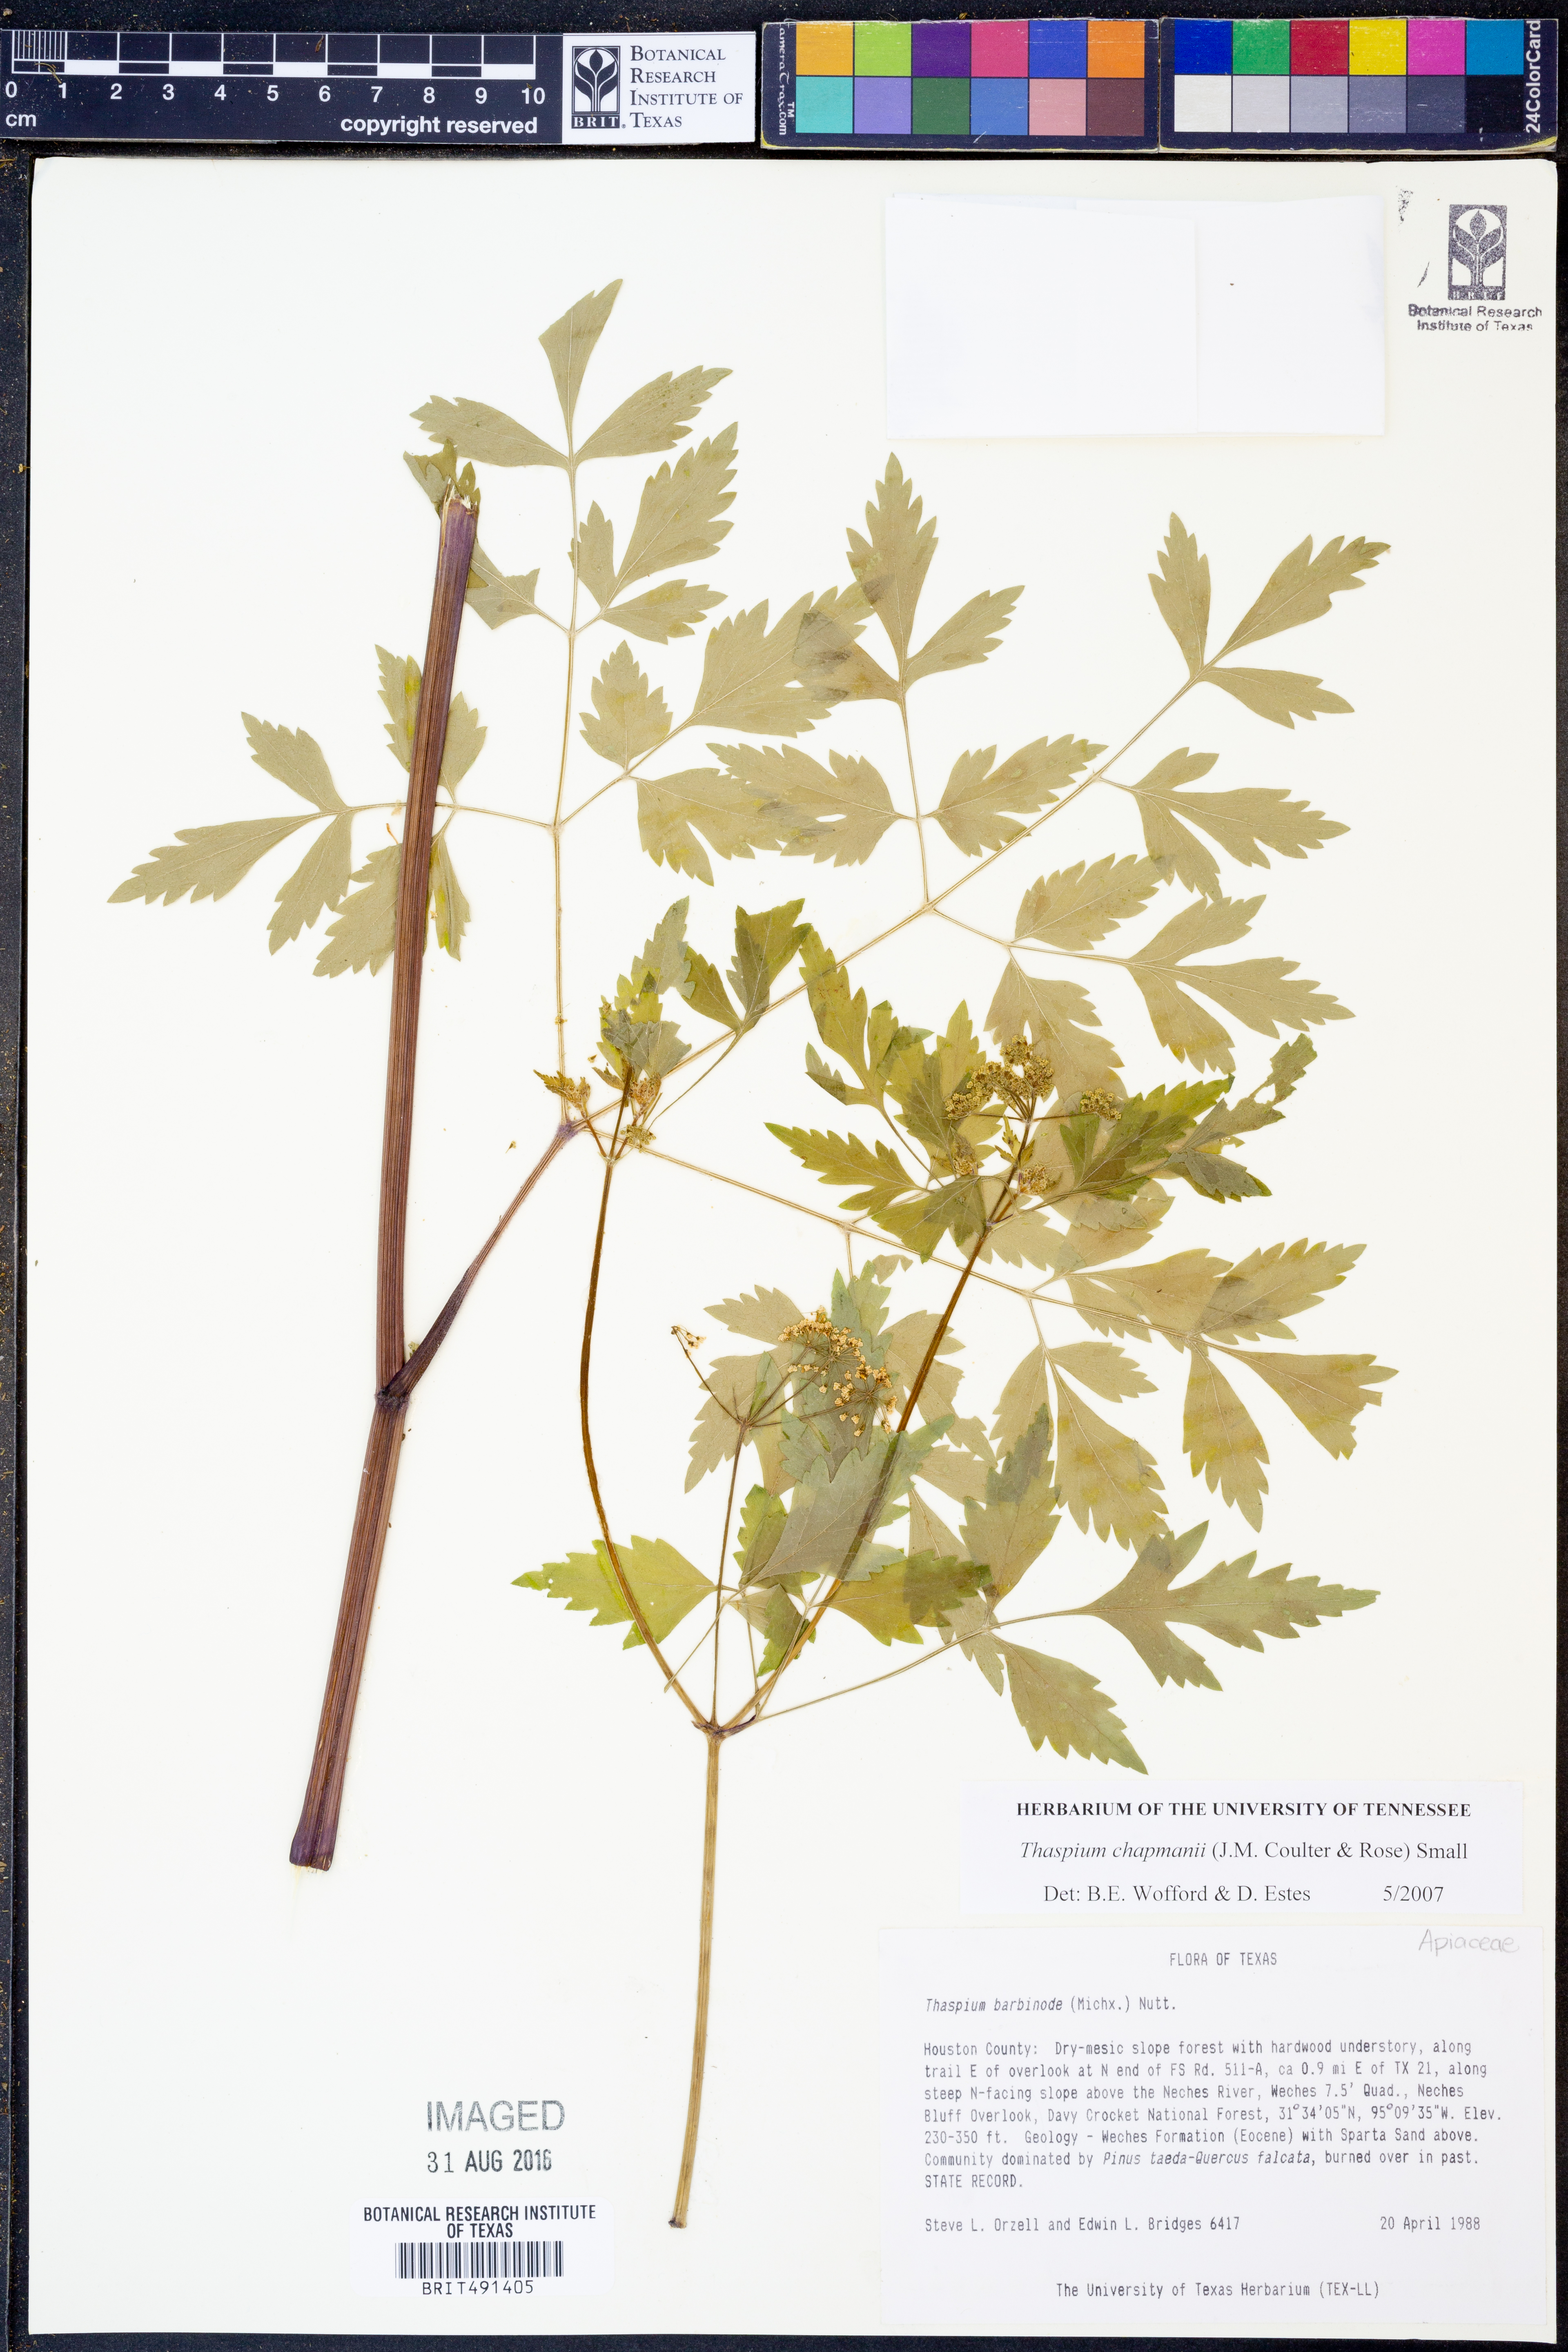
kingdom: Plantae
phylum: Tracheophyta
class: Magnoliopsida
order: Apiales
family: Apiaceae
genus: Thaspium
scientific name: Thaspium barbinode
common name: Bearded meadow-parsnip
